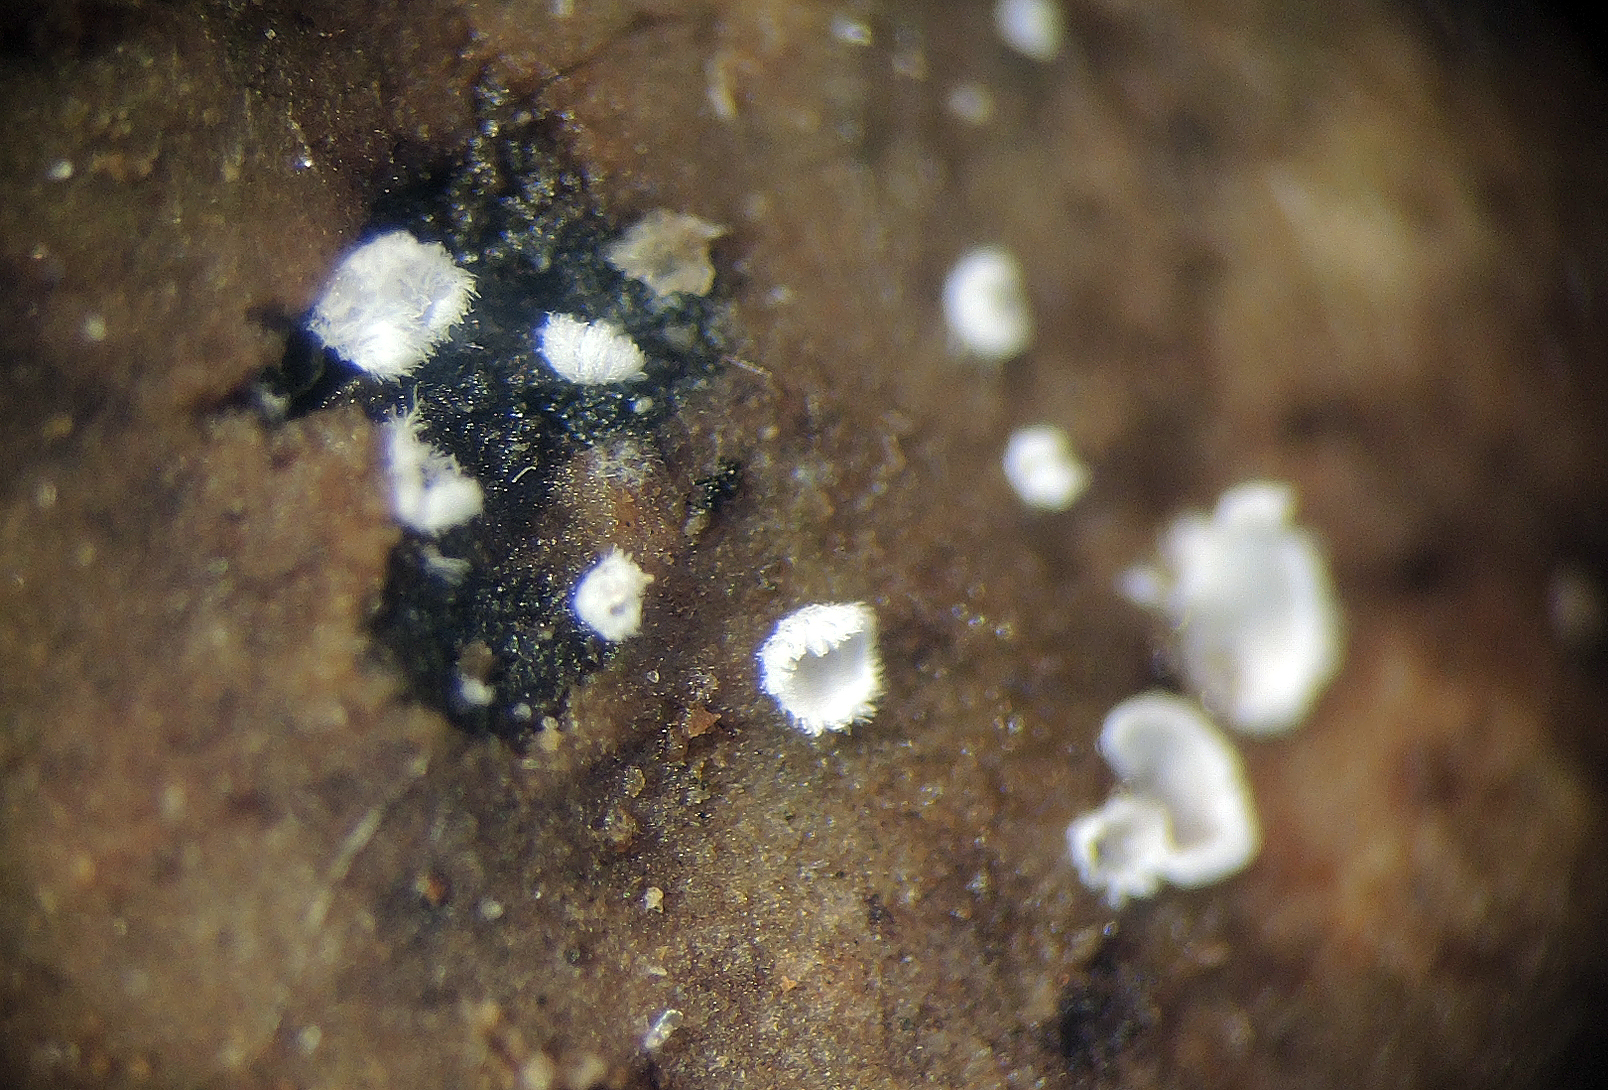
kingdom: Fungi
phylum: Basidiomycota
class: Agaricomycetes
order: Agaricales
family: Niaceae
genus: Flagelloscypha
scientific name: Flagelloscypha minutissima
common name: lille hængeskål
